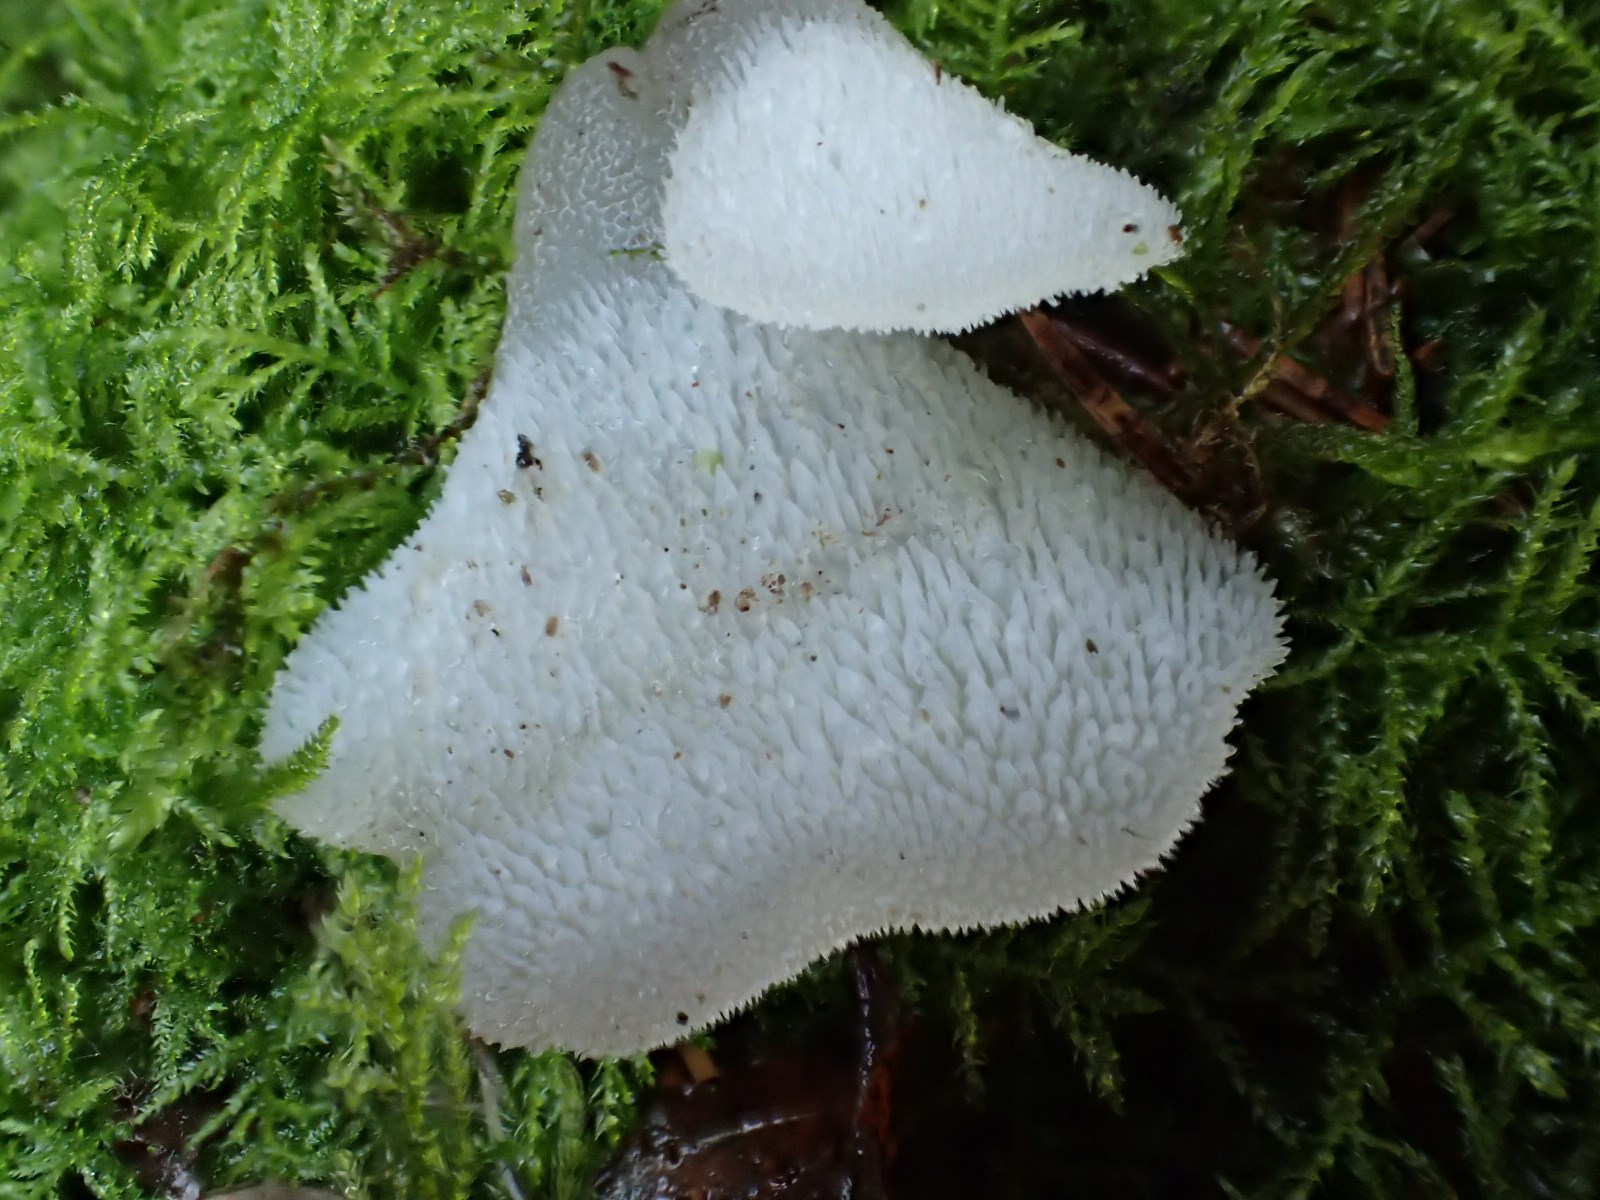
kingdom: Fungi
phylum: Basidiomycota
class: Agaricomycetes
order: Auriculariales
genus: Pseudohydnum
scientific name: Pseudohydnum gelatinosum
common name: bævretand
